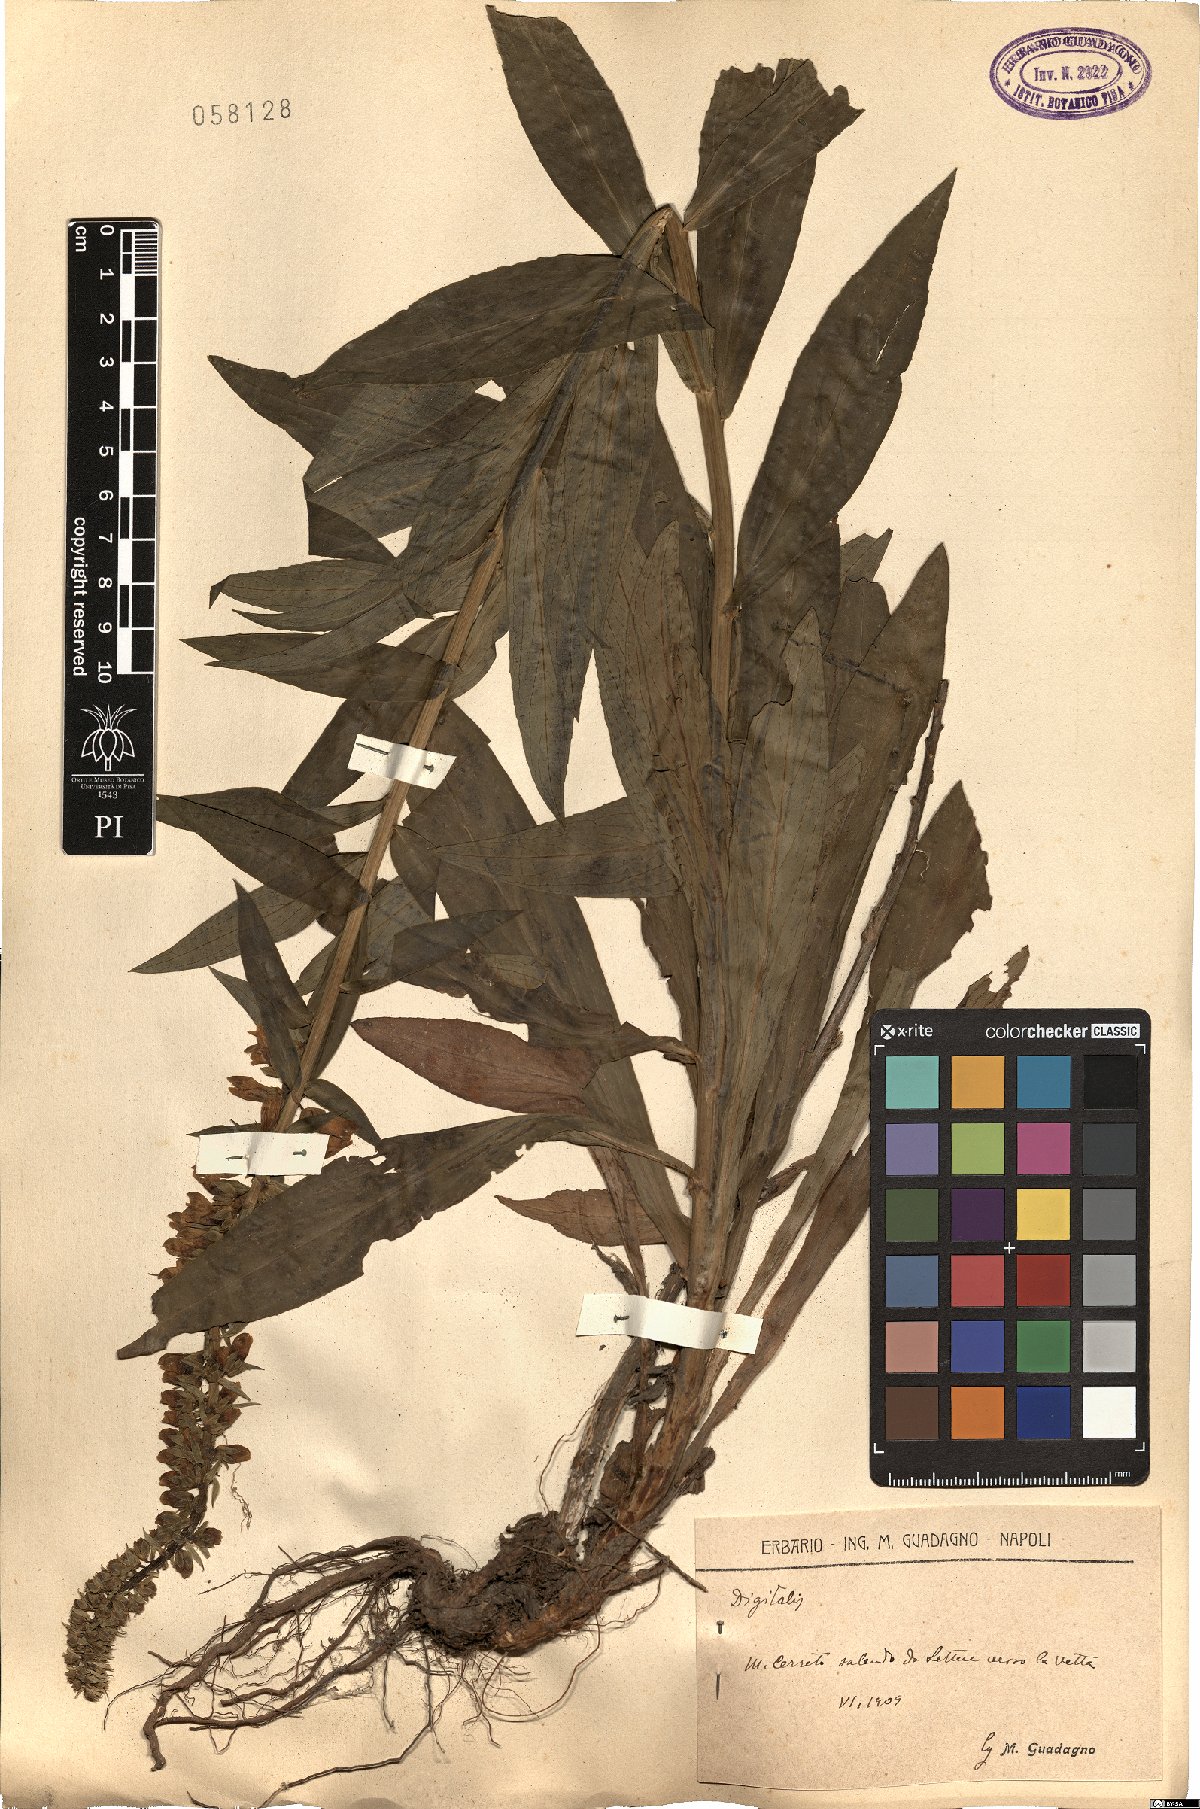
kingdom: Plantae
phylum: Tracheophyta
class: Magnoliopsida
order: Lamiales
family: Plantaginaceae
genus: Digitalis
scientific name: Digitalis
